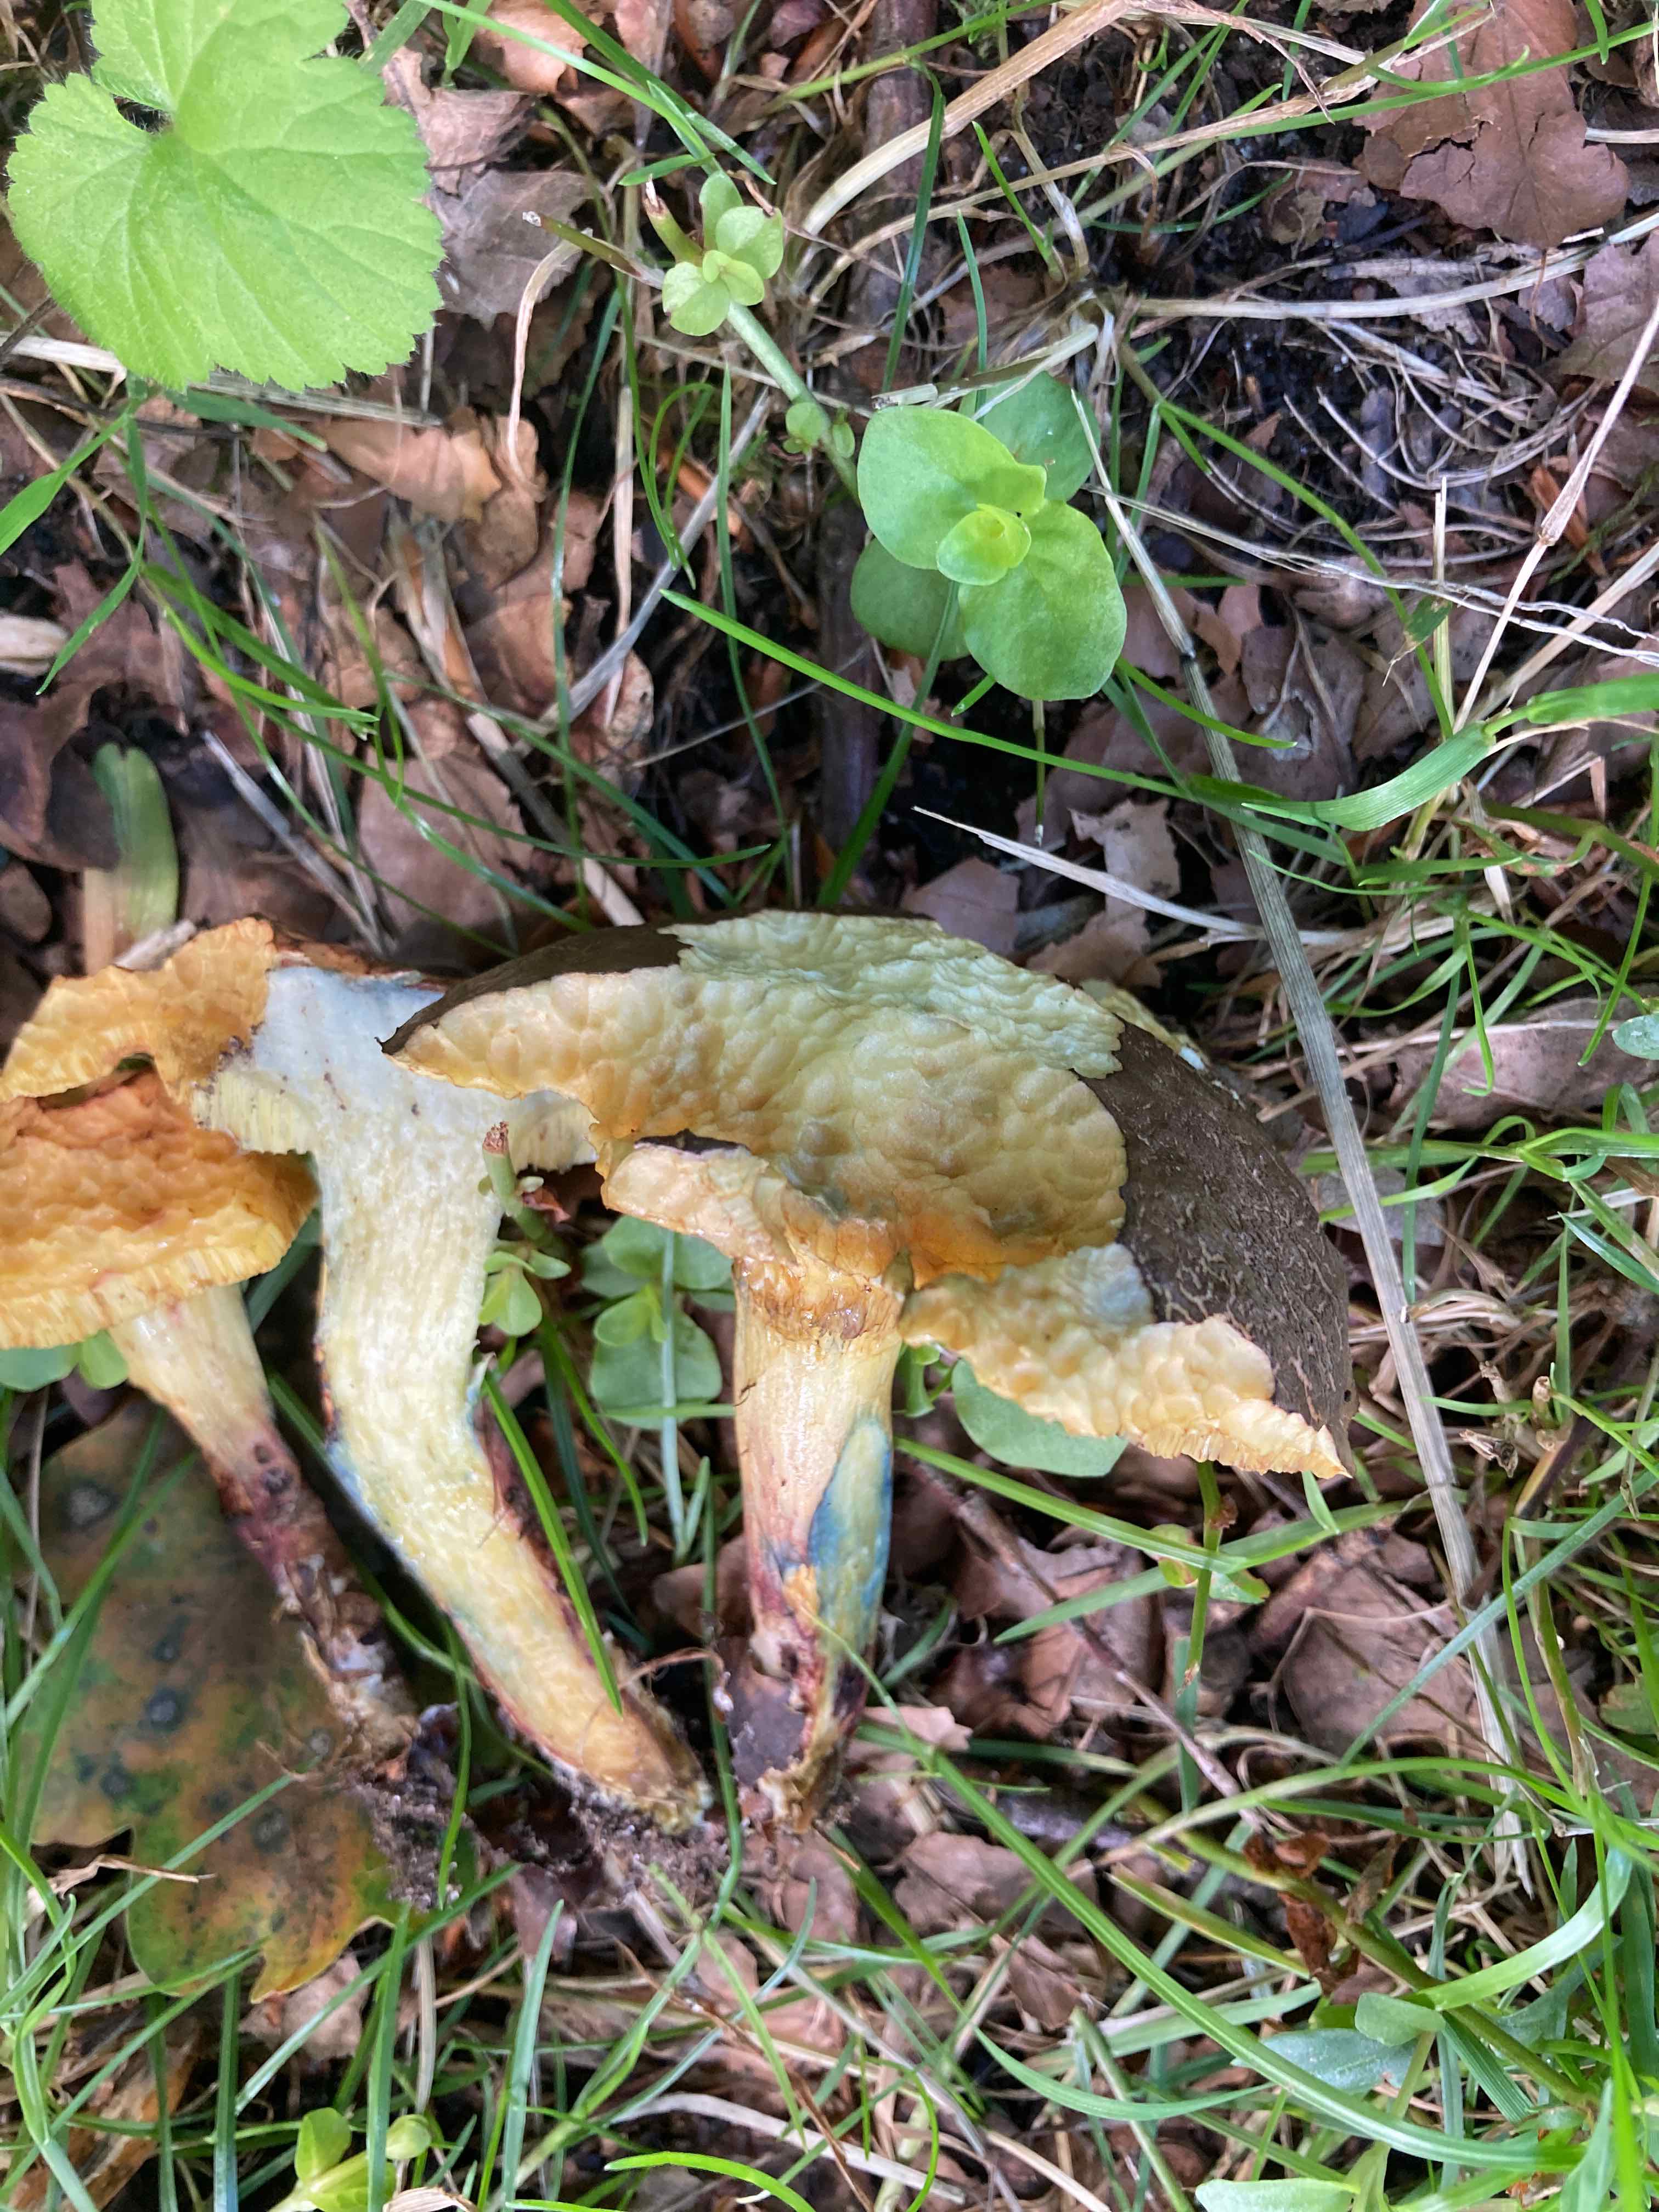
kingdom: Fungi
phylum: Basidiomycota
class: Agaricomycetes
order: Boletales
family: Boletaceae
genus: Xerocomellus
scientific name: Xerocomellus cisalpinus
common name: finsprukken rørhat
